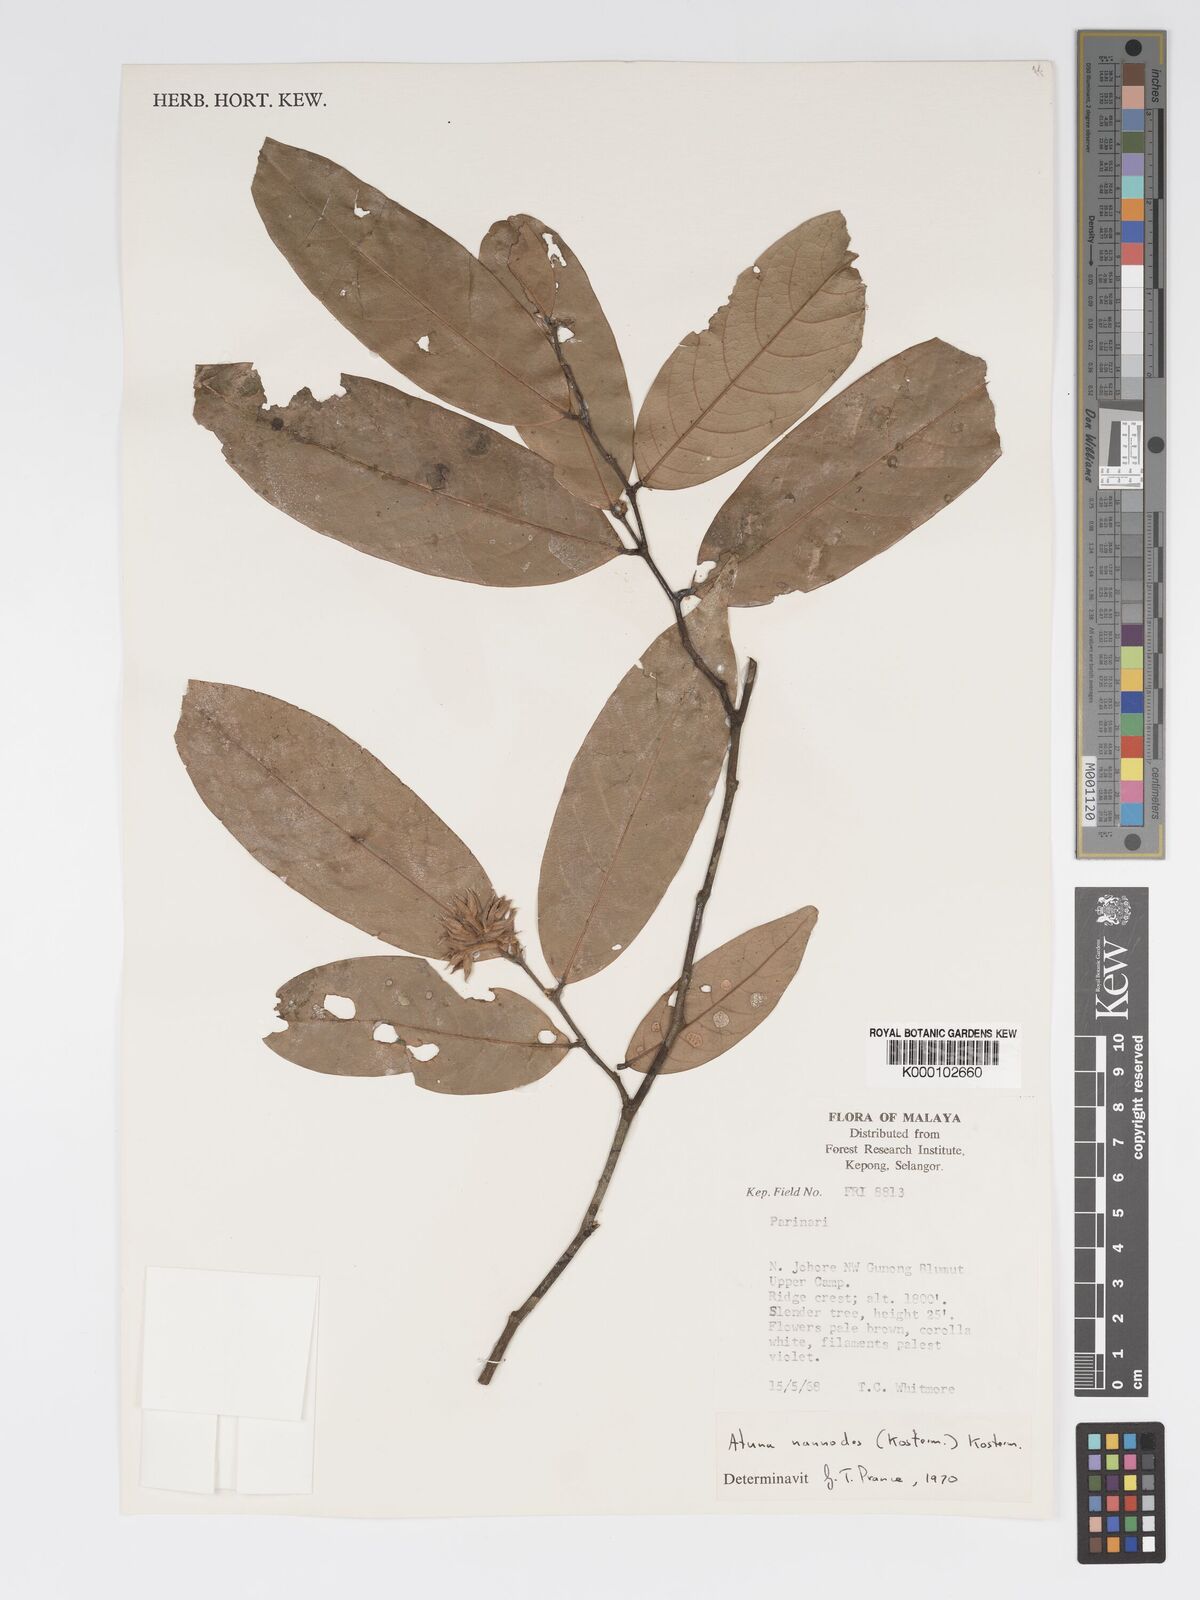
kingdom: Plantae
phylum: Tracheophyta
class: Magnoliopsida
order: Malpighiales
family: Chrysobalanaceae
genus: Atuna
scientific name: Atuna nannodes
